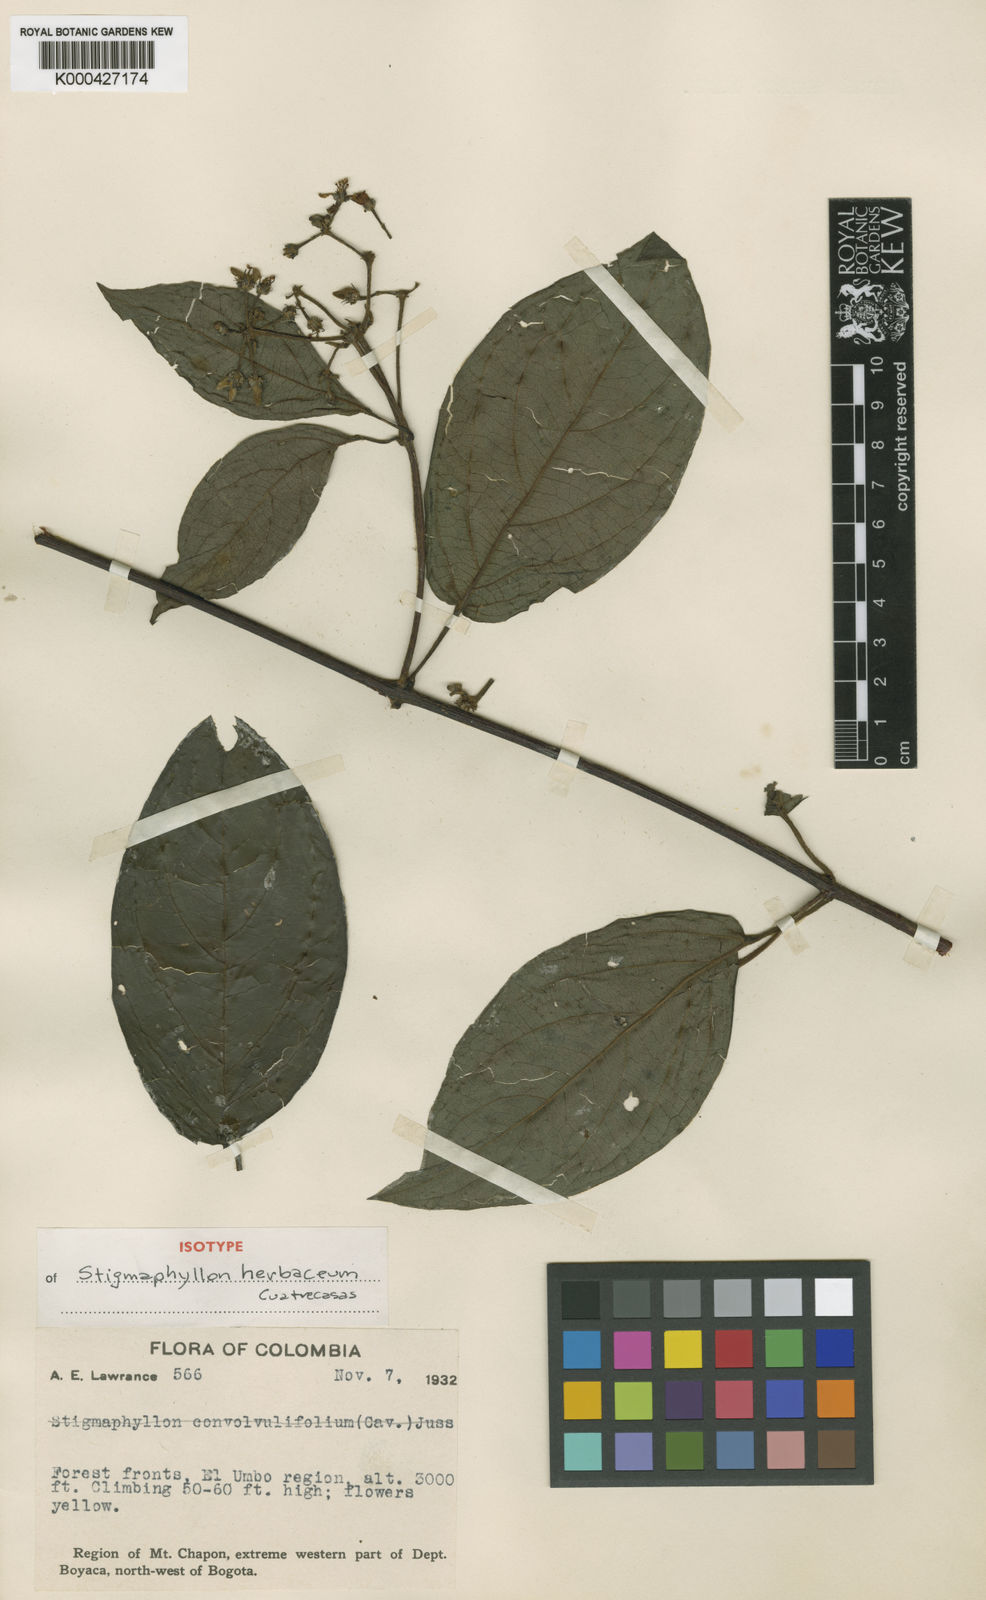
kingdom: Plantae
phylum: Tracheophyta
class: Magnoliopsida
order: Malpighiales
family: Malpighiaceae
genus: Stigmaphyllon
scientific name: Stigmaphyllon herbaceum
